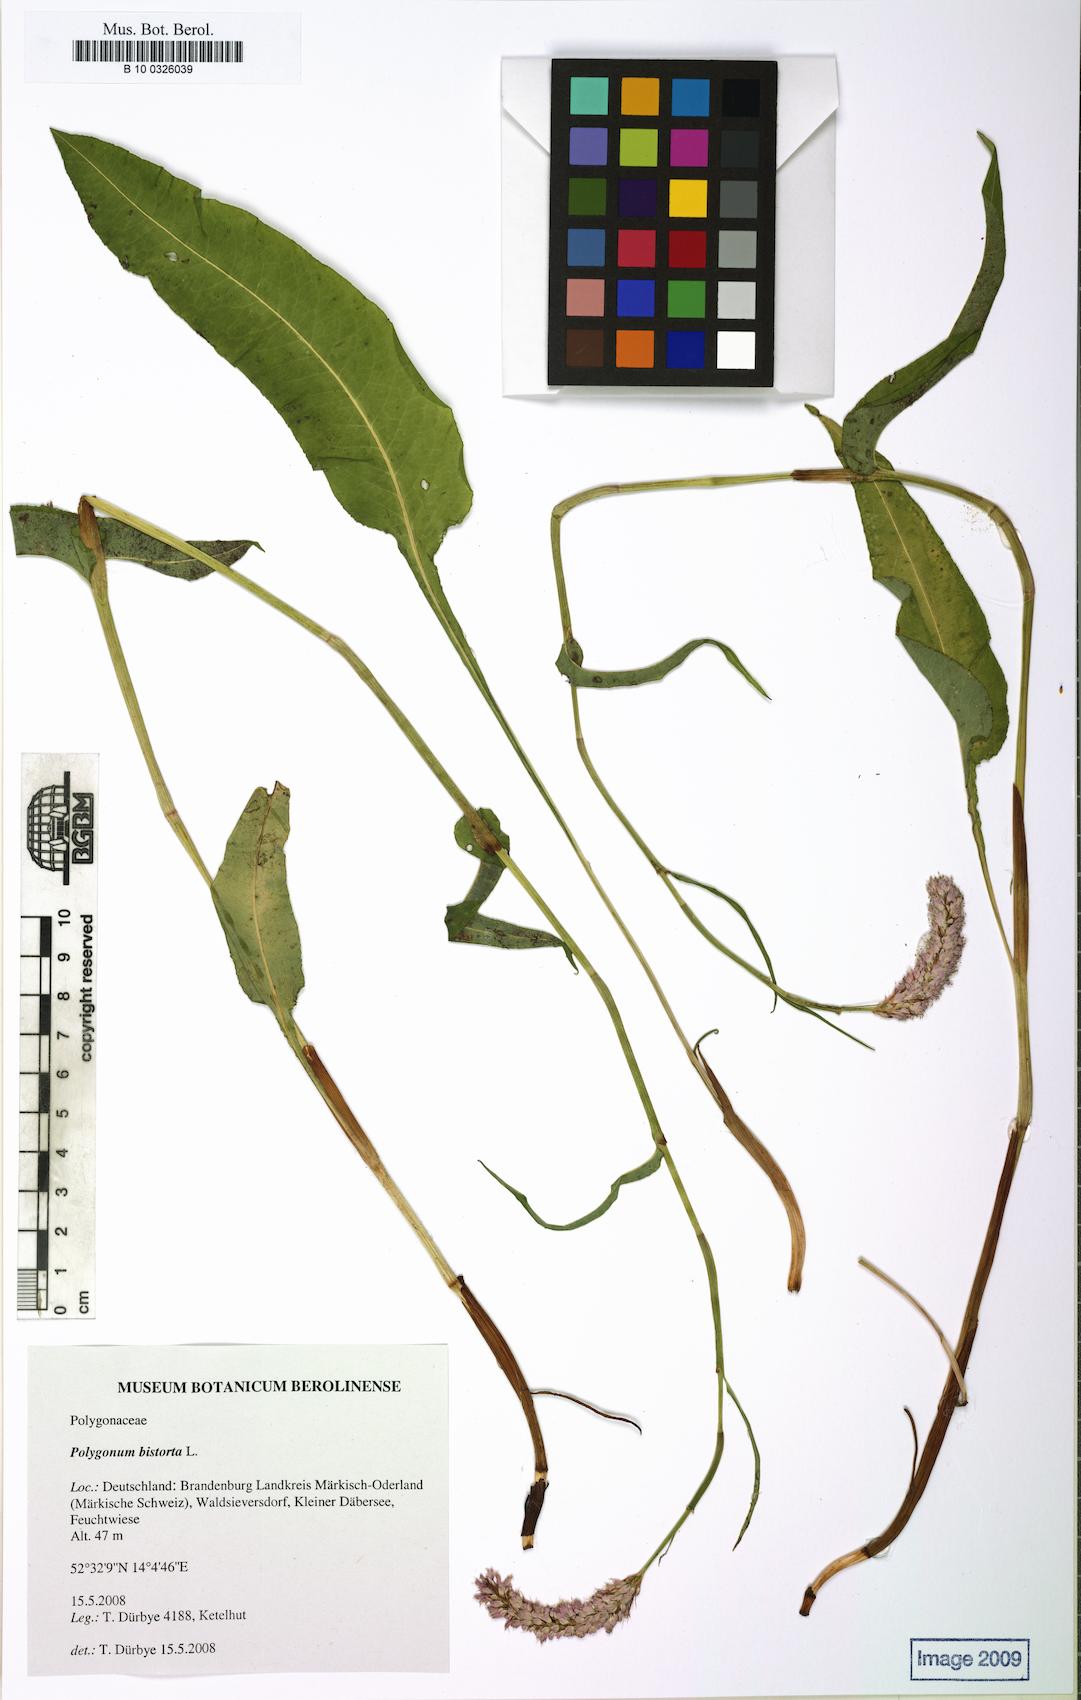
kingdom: Plantae
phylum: Tracheophyta
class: Magnoliopsida
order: Caryophyllales
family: Polygonaceae
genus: Bistorta
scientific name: Bistorta officinalis
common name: Common bistort
